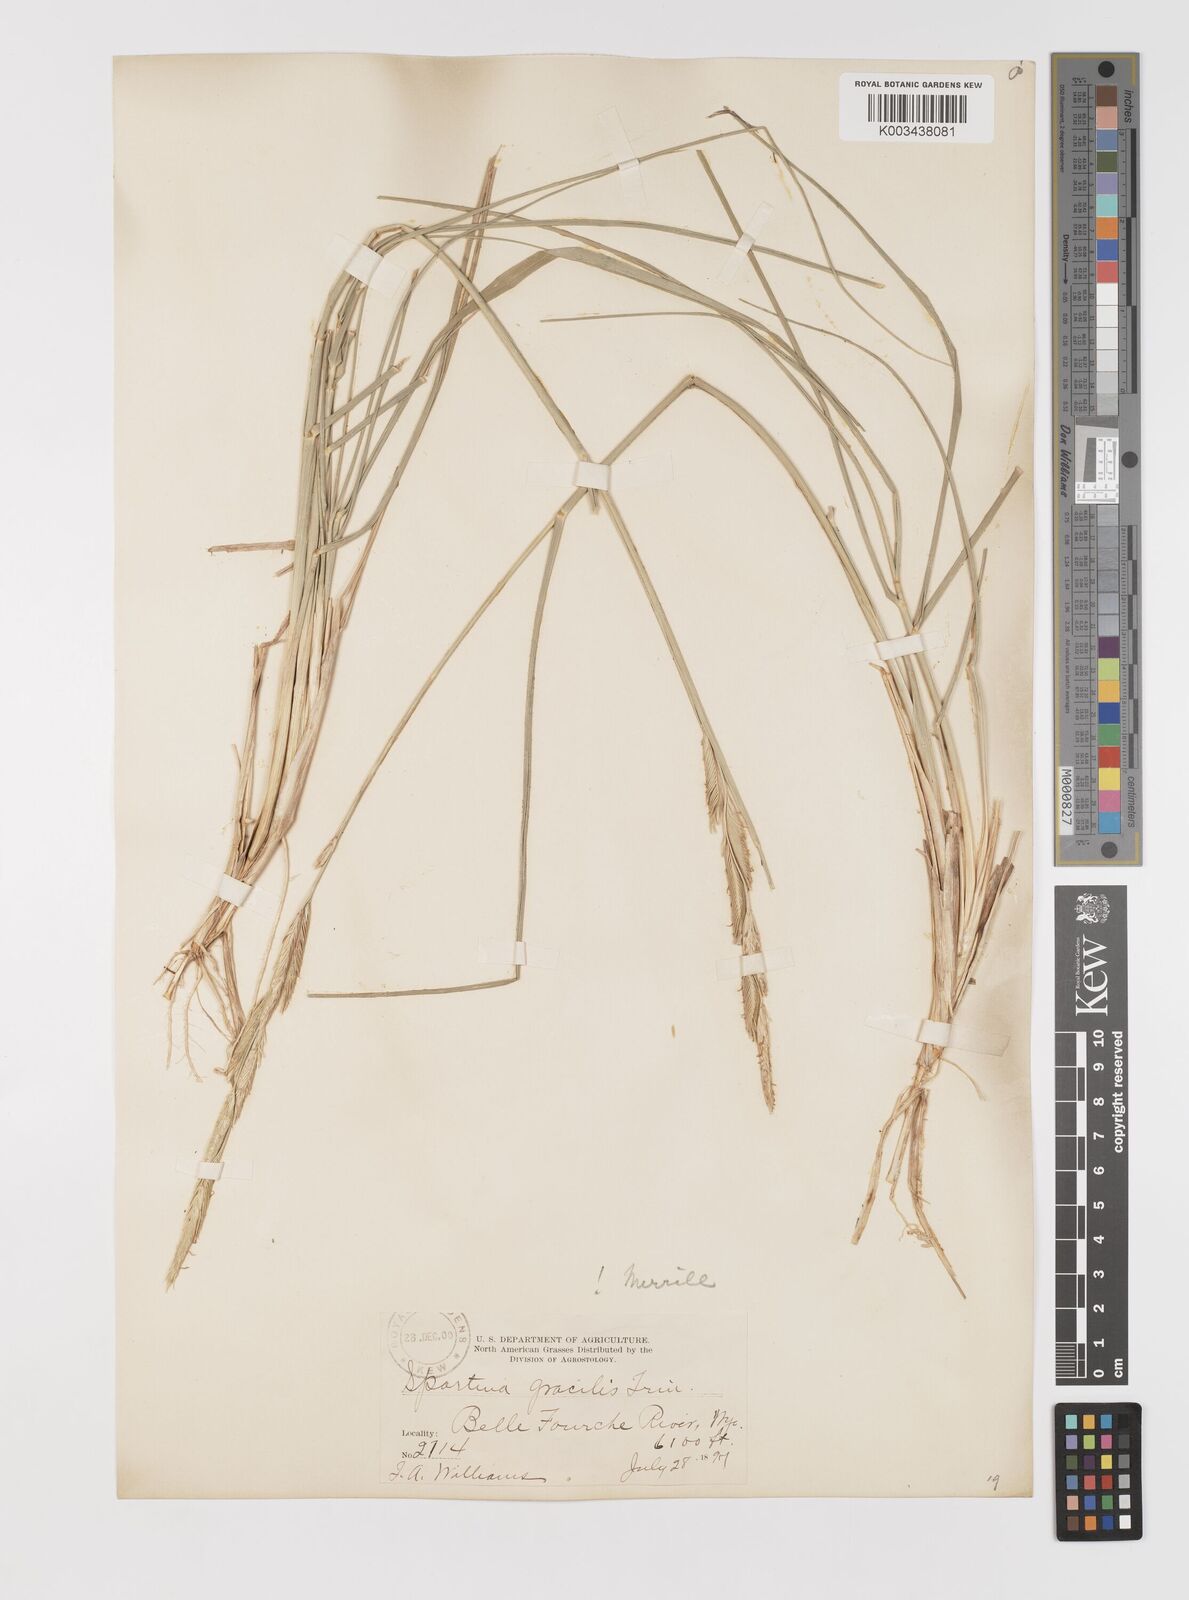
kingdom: Plantae
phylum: Tracheophyta
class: Liliopsida
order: Poales
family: Poaceae
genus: Sporobolus
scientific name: Sporobolus hookerianus
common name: Alkali cordgrass
